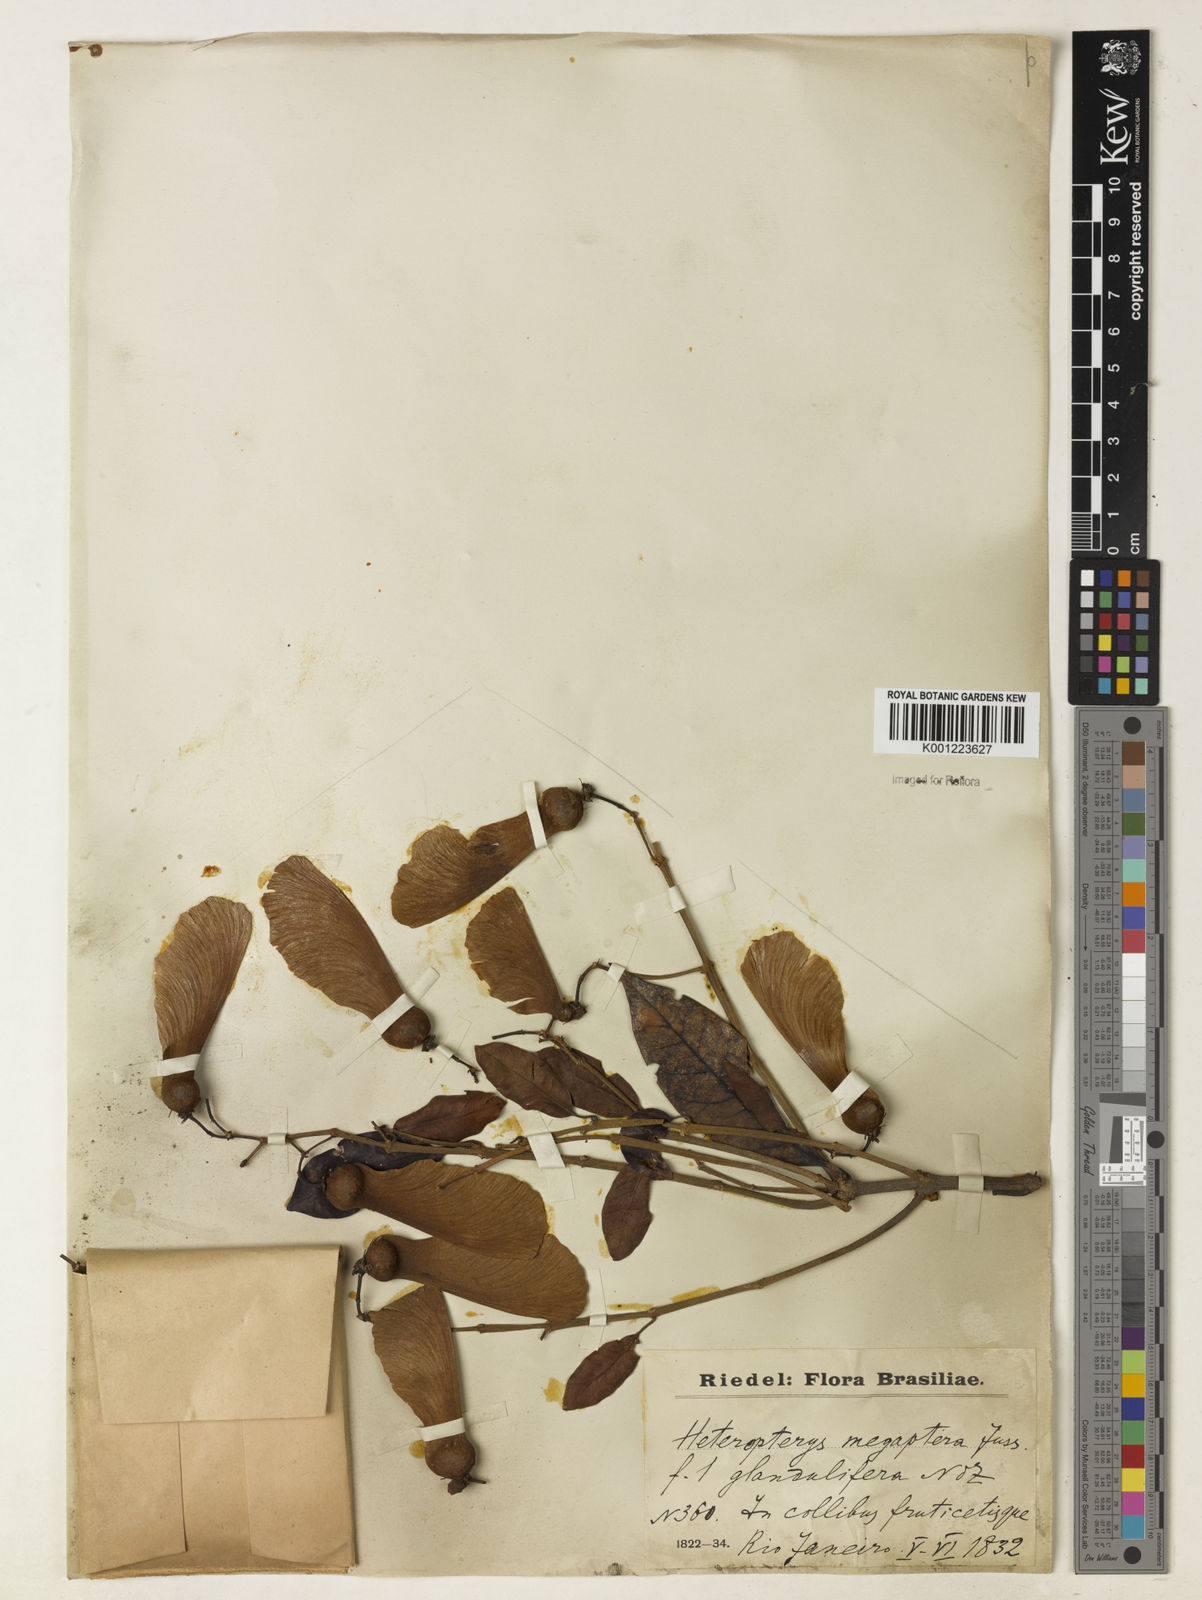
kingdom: Plantae
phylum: Tracheophyta
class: Magnoliopsida
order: Malpighiales
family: Malpighiaceae
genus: Heteropterys
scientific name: Heteropterys megaptera
